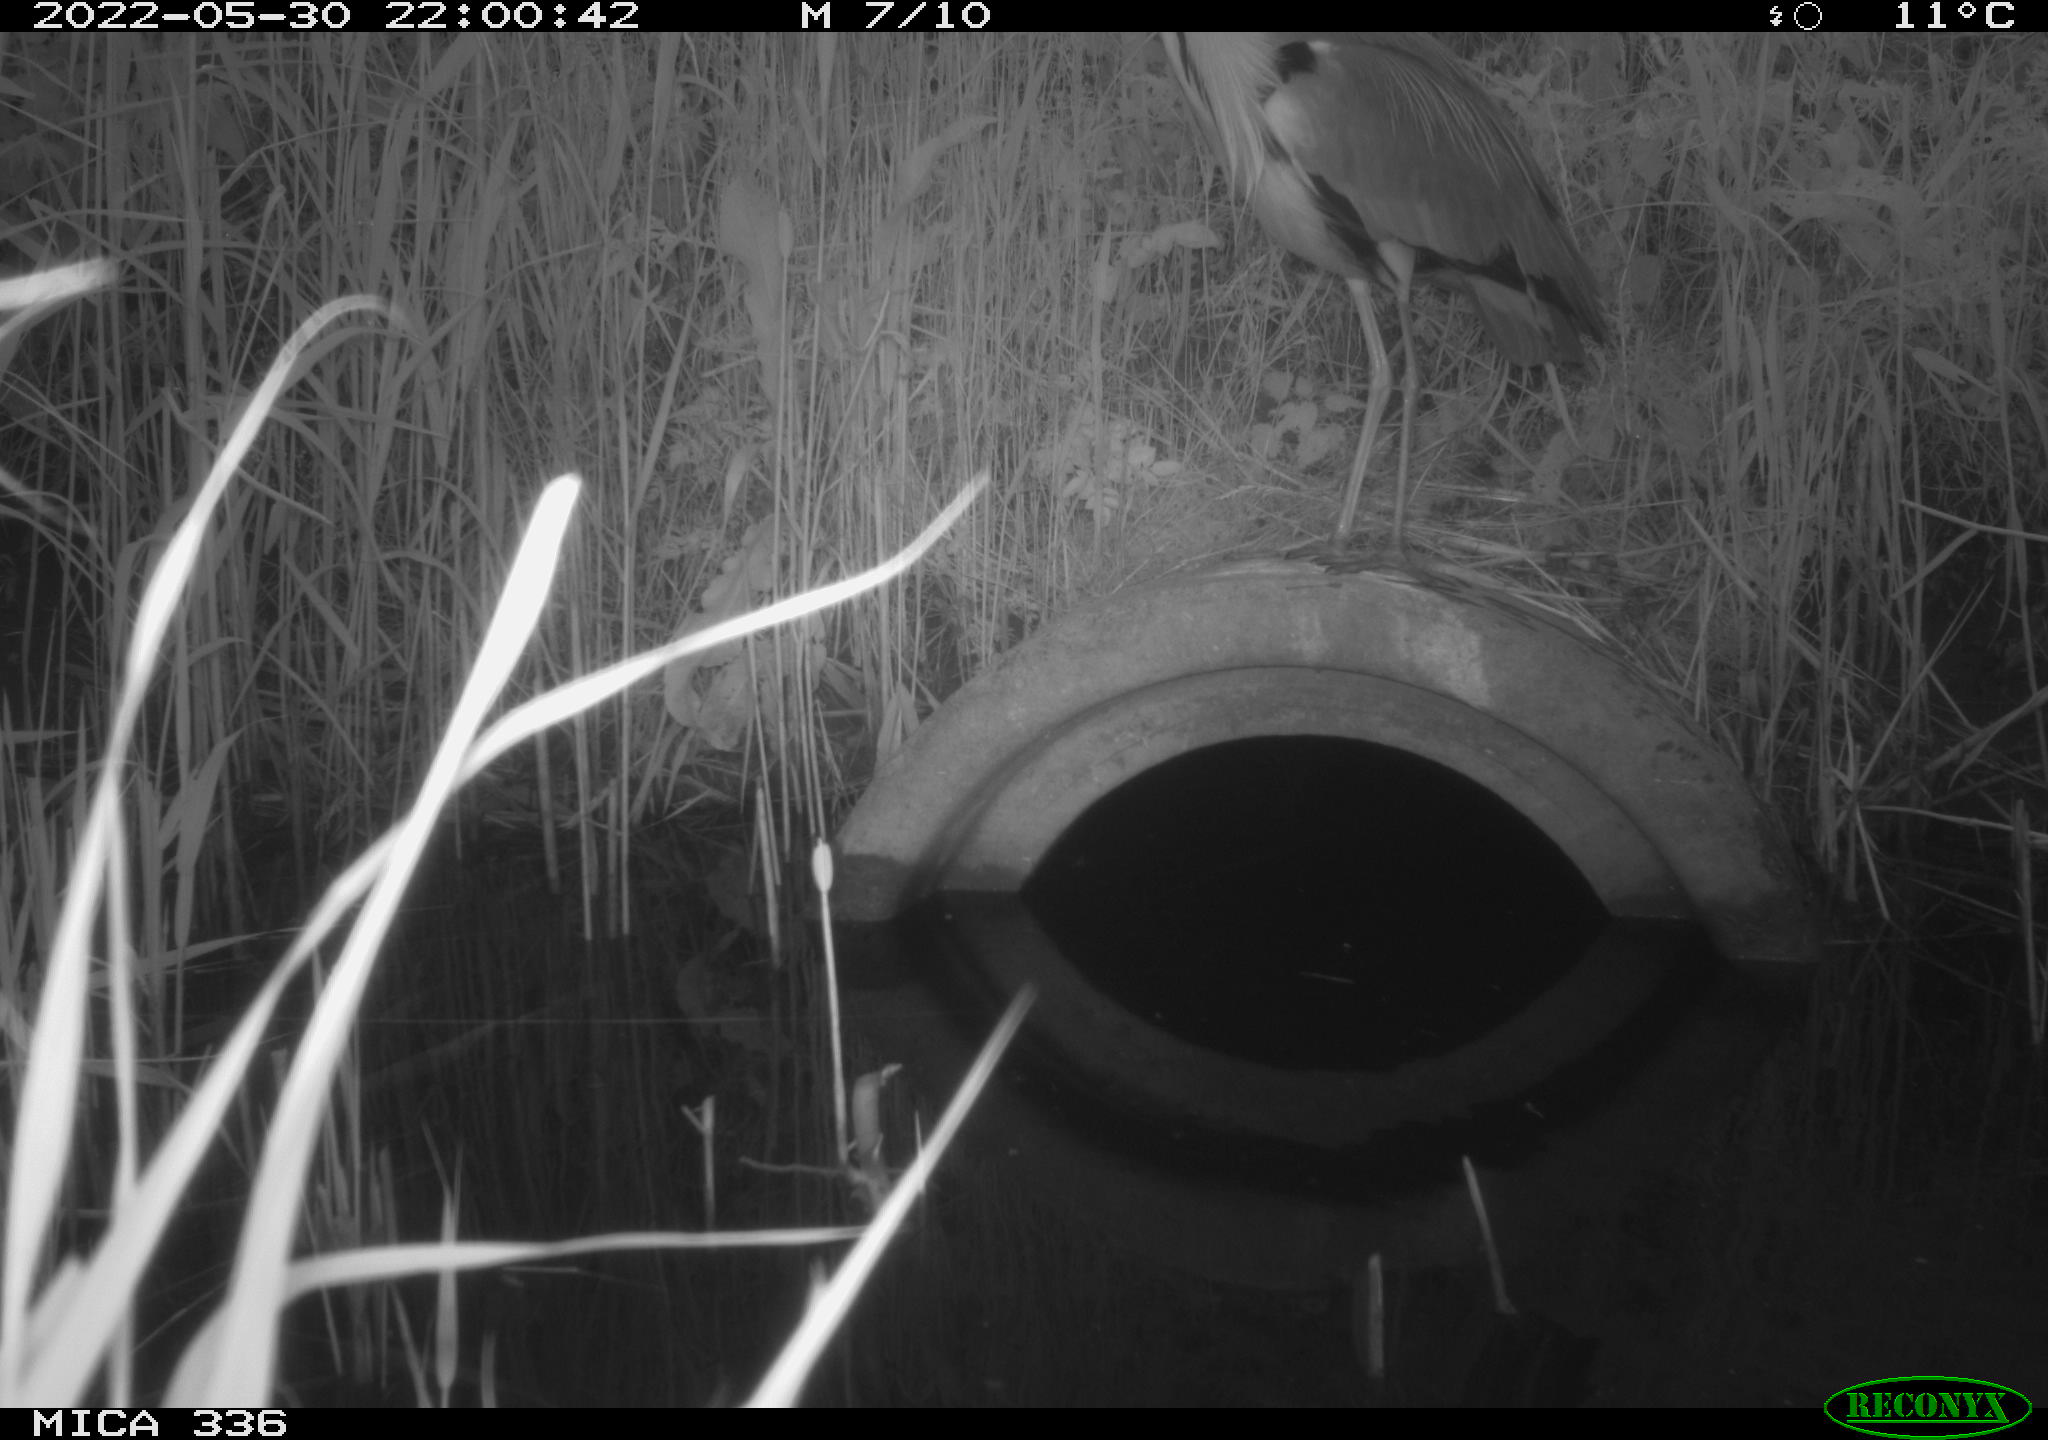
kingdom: Animalia
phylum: Chordata
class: Aves
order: Pelecaniformes
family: Ardeidae
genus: Ardea
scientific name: Ardea
